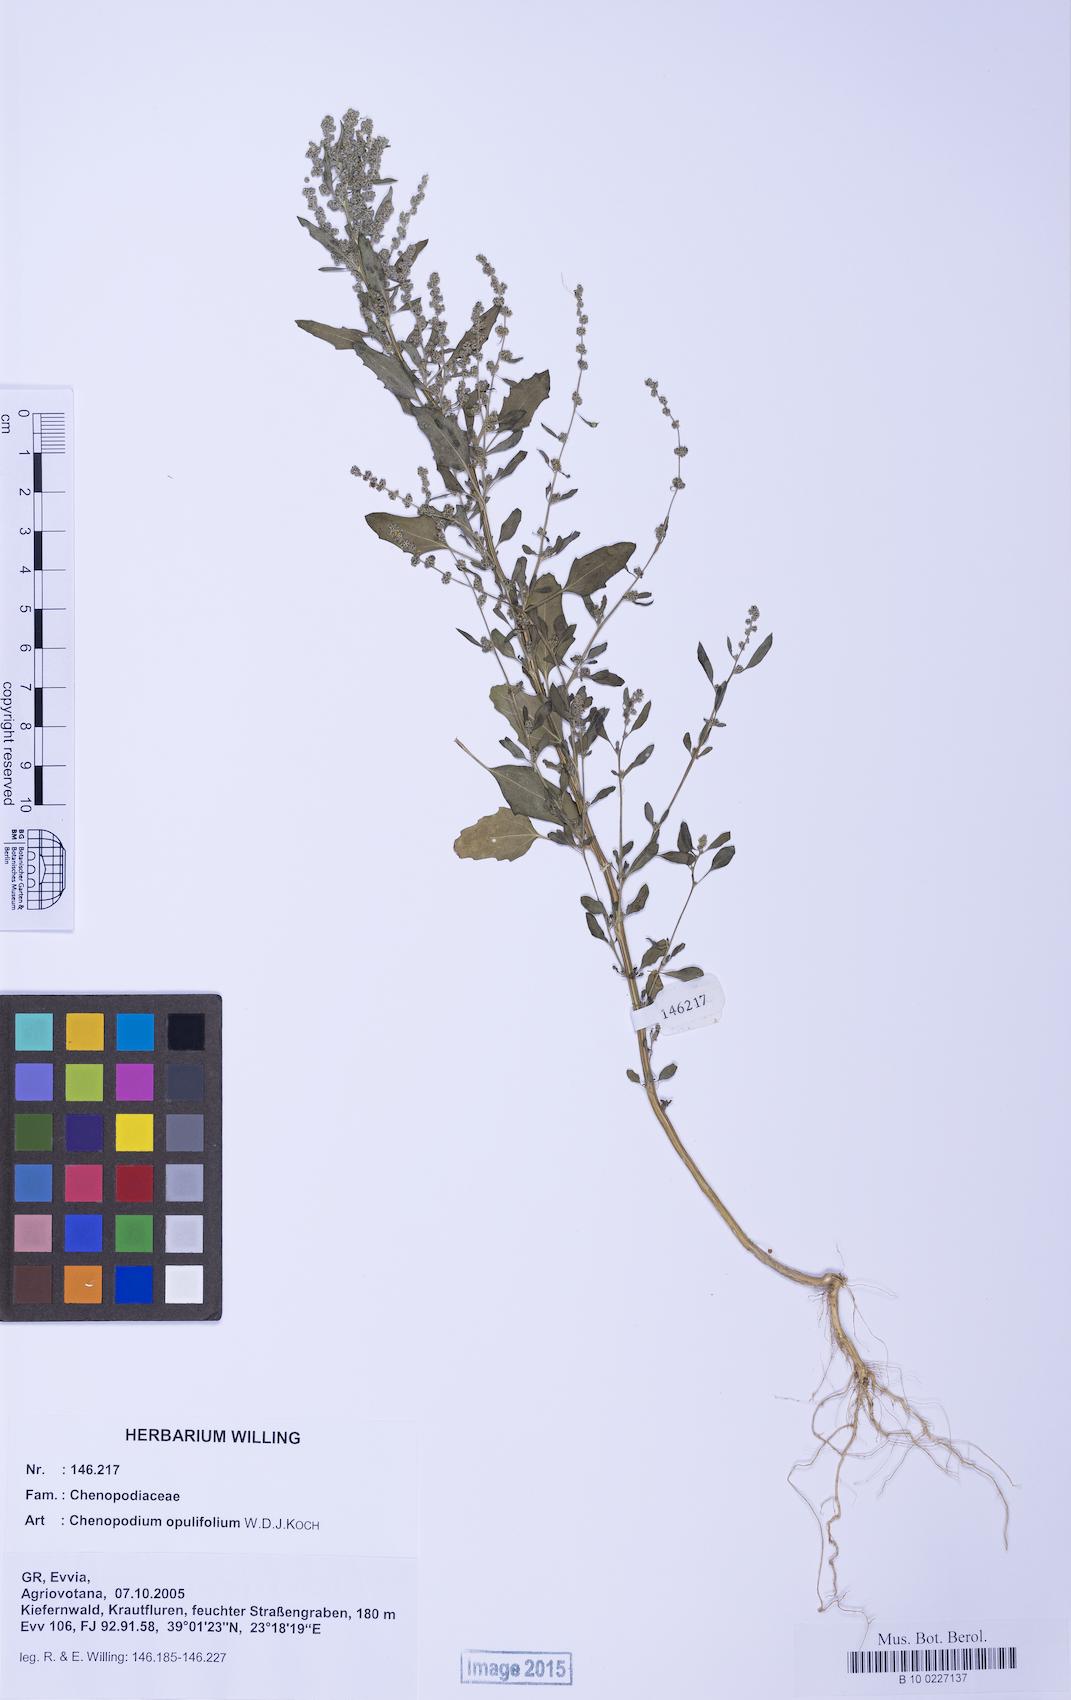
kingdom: Plantae
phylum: Tracheophyta
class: Magnoliopsida
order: Caryophyllales
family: Amaranthaceae
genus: Chenopodium
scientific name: Chenopodium album
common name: Fat-hen
